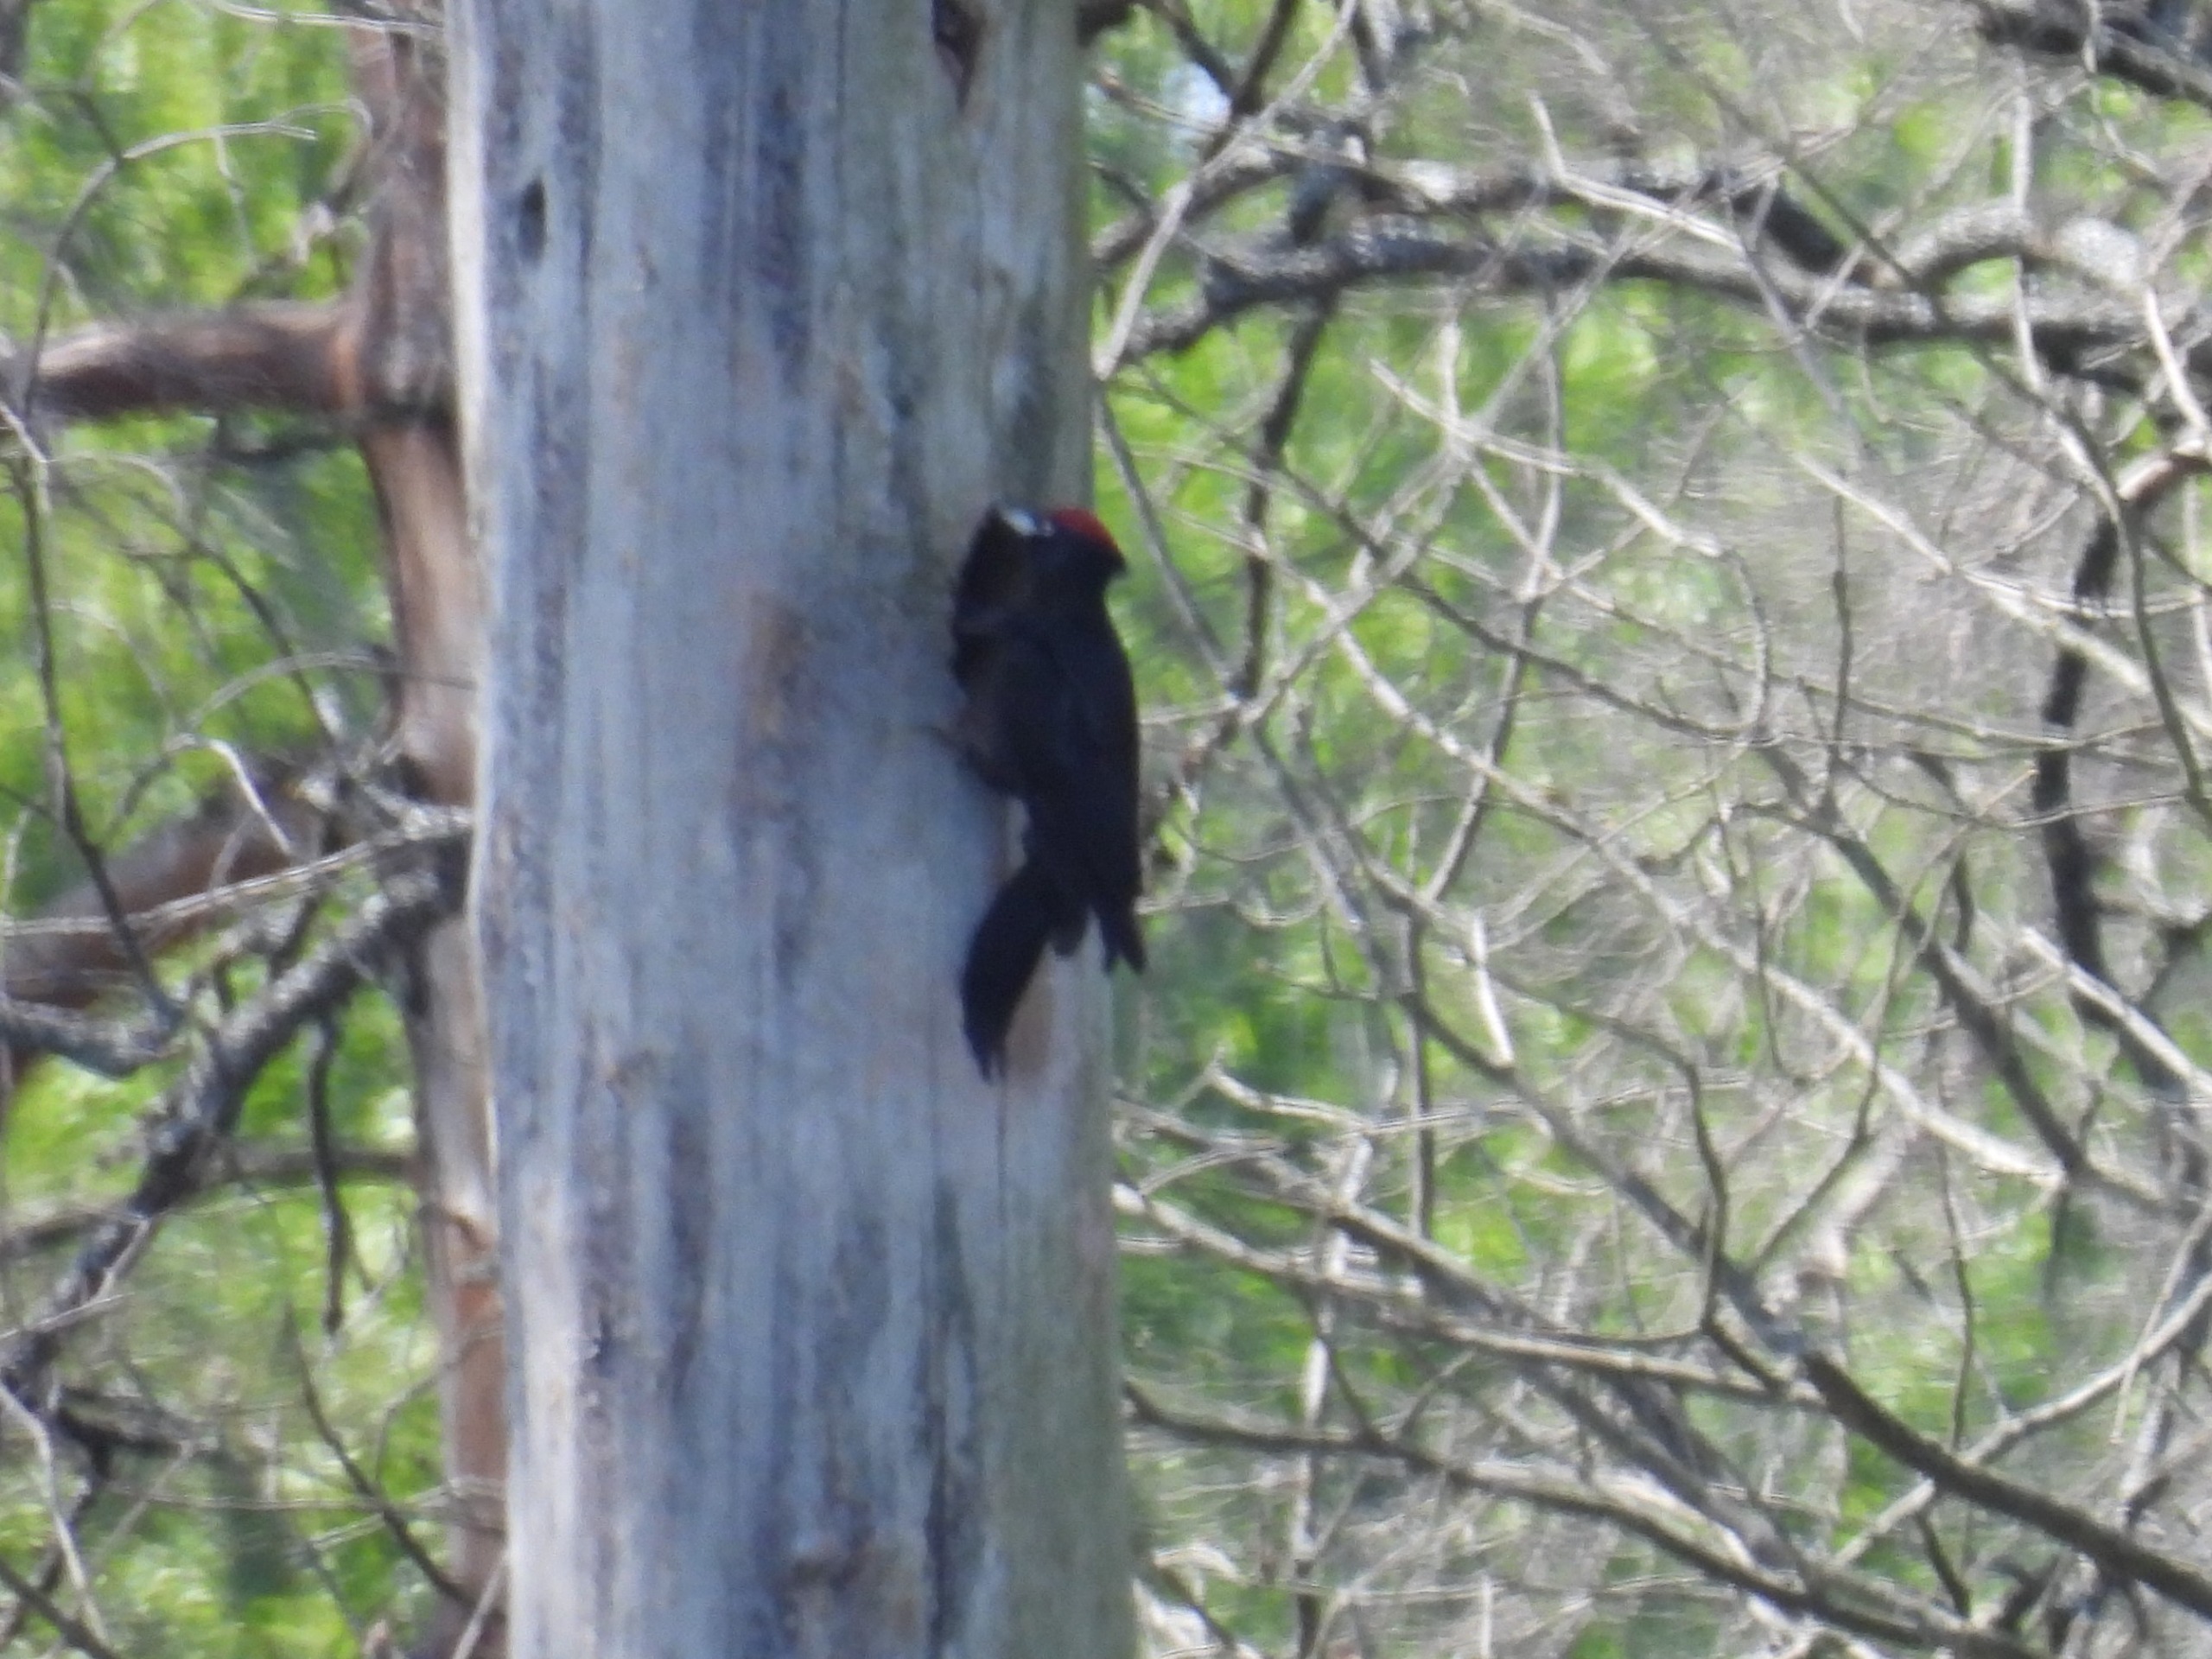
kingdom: Animalia
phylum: Chordata
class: Aves
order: Piciformes
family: Picidae
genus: Dryocopus
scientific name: Dryocopus martius
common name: Sortspætte
